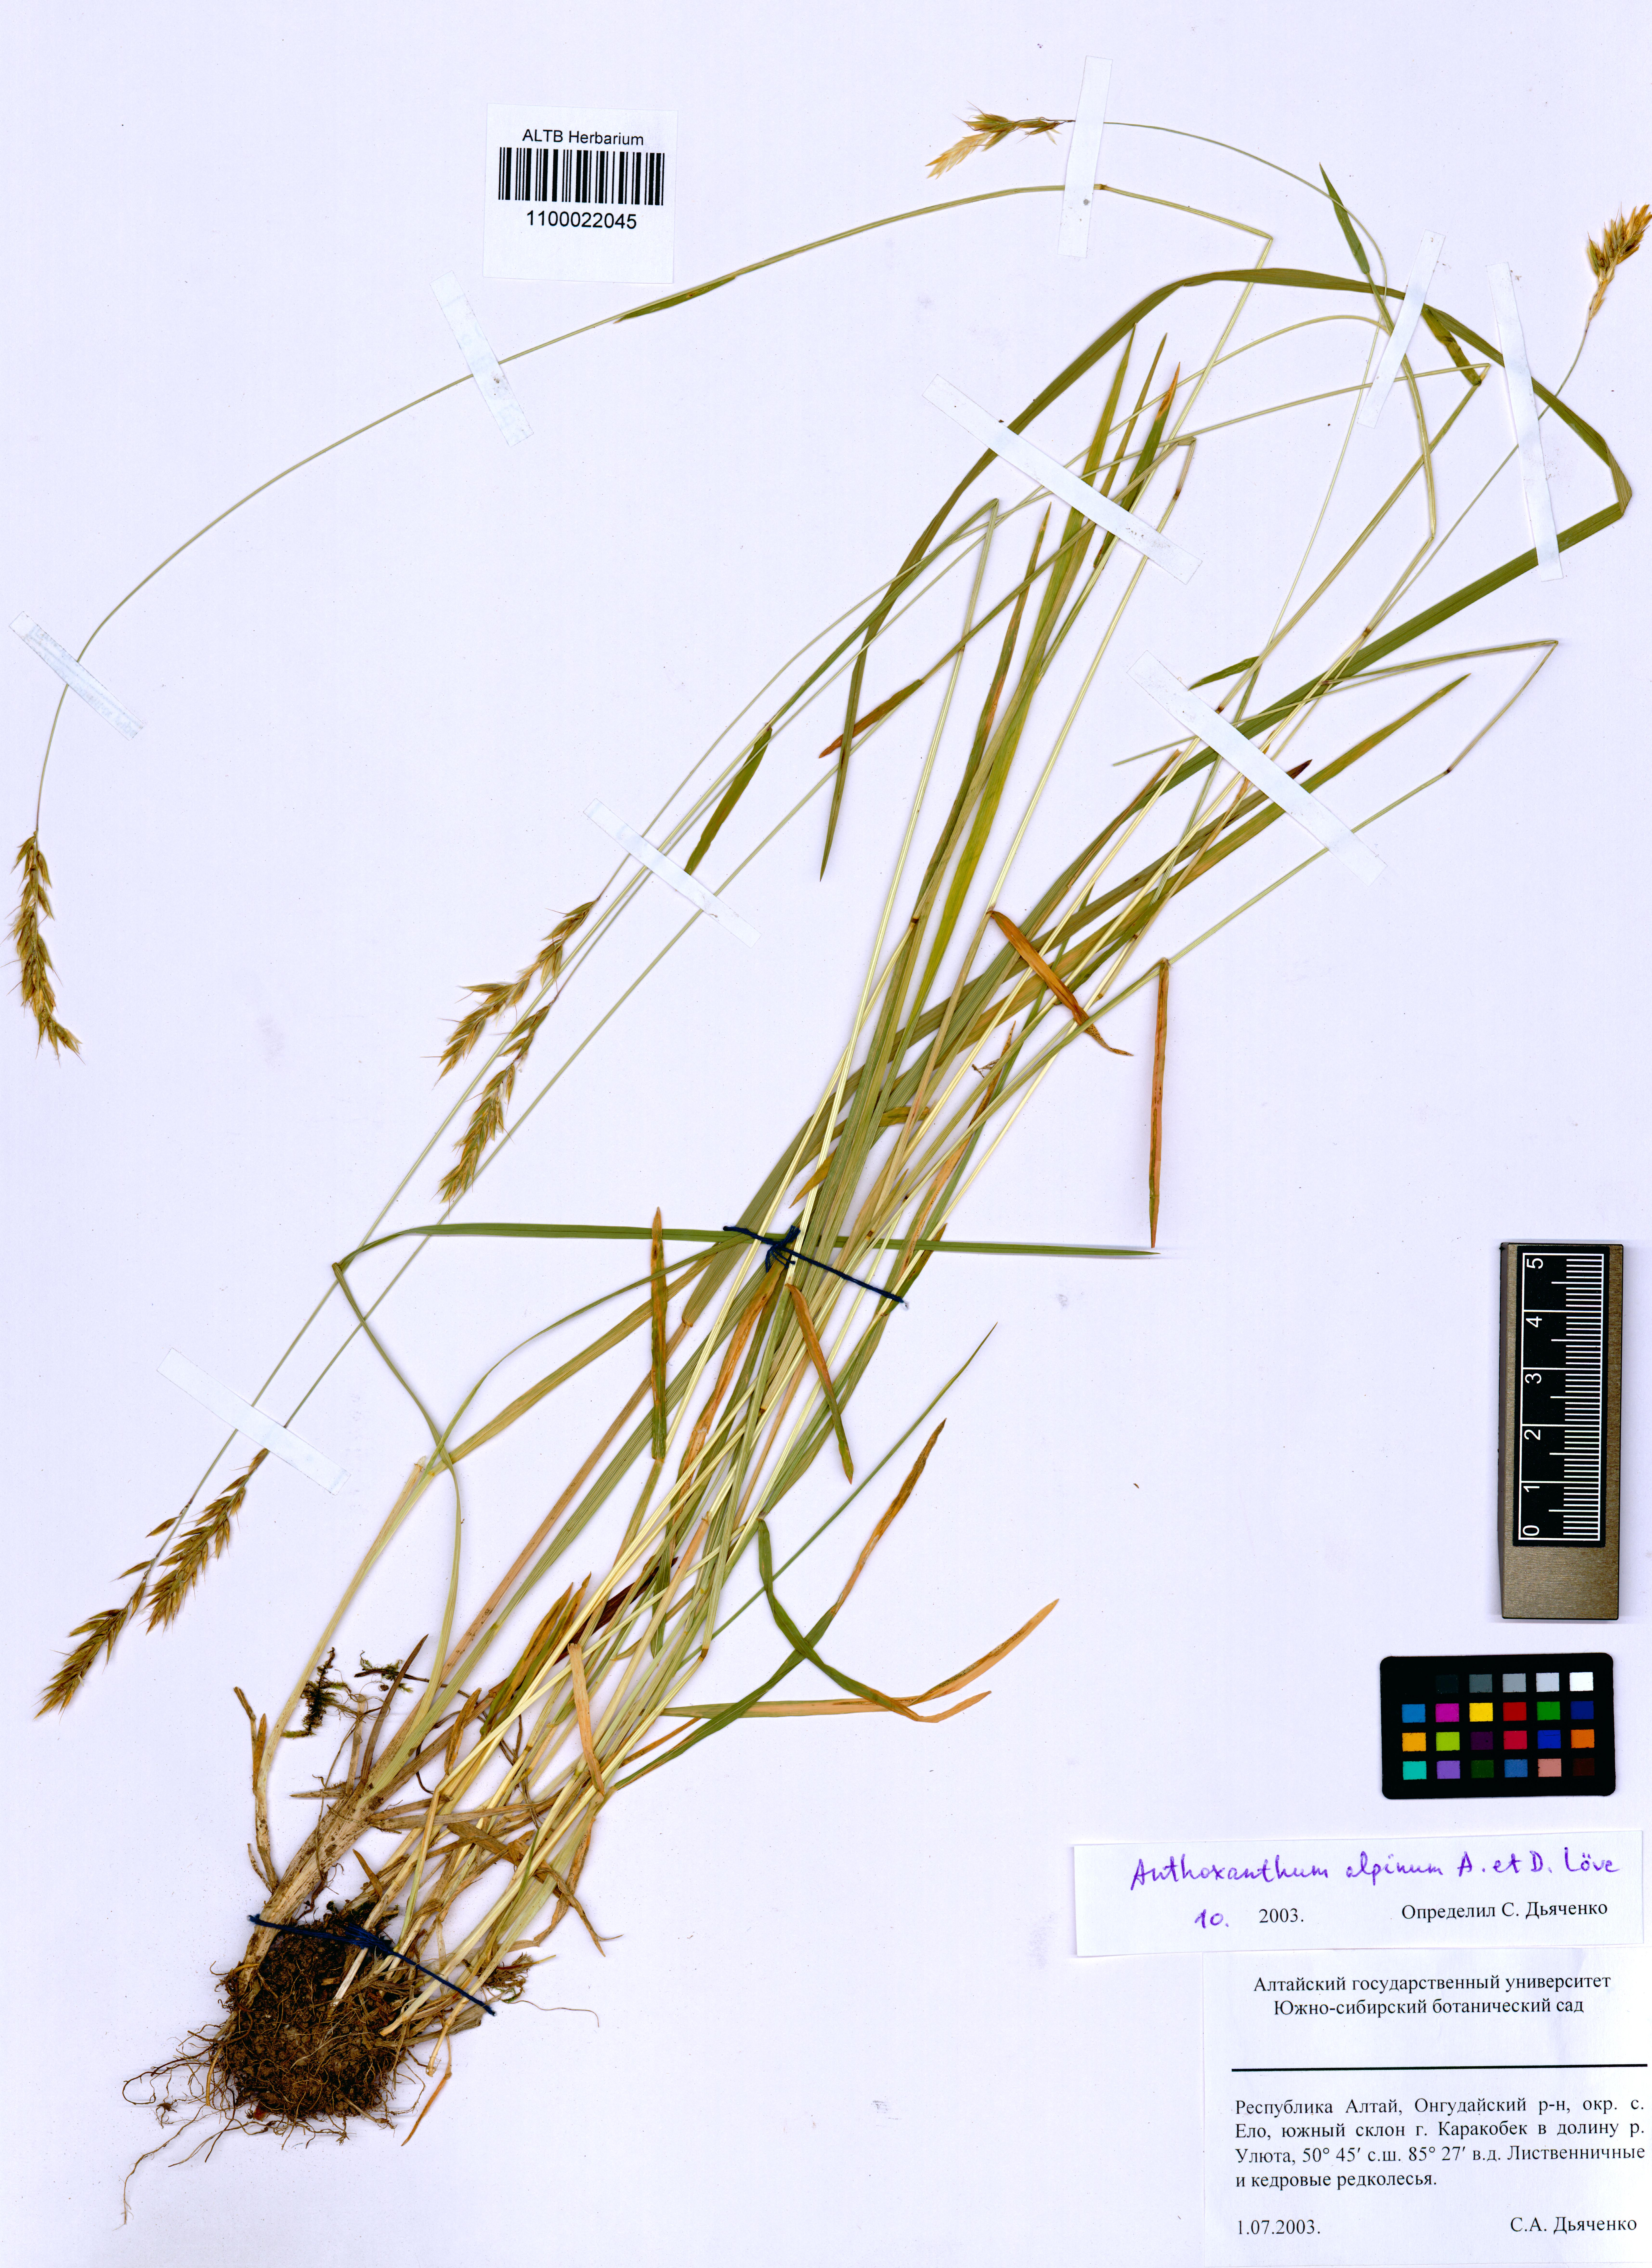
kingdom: Plantae
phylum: Tracheophyta
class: Liliopsida
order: Poales
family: Poaceae
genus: Anthoxanthum
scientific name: Anthoxanthum nipponicum
